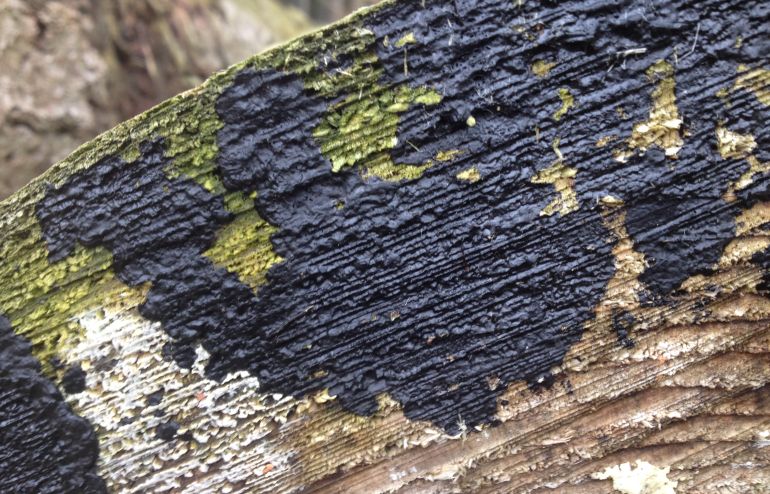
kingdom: Fungi
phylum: Basidiomycota
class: Agaricomycetes
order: Auriculariales
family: Auriculariaceae
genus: Exidia
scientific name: Exidia pithya
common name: gran-bævretop
